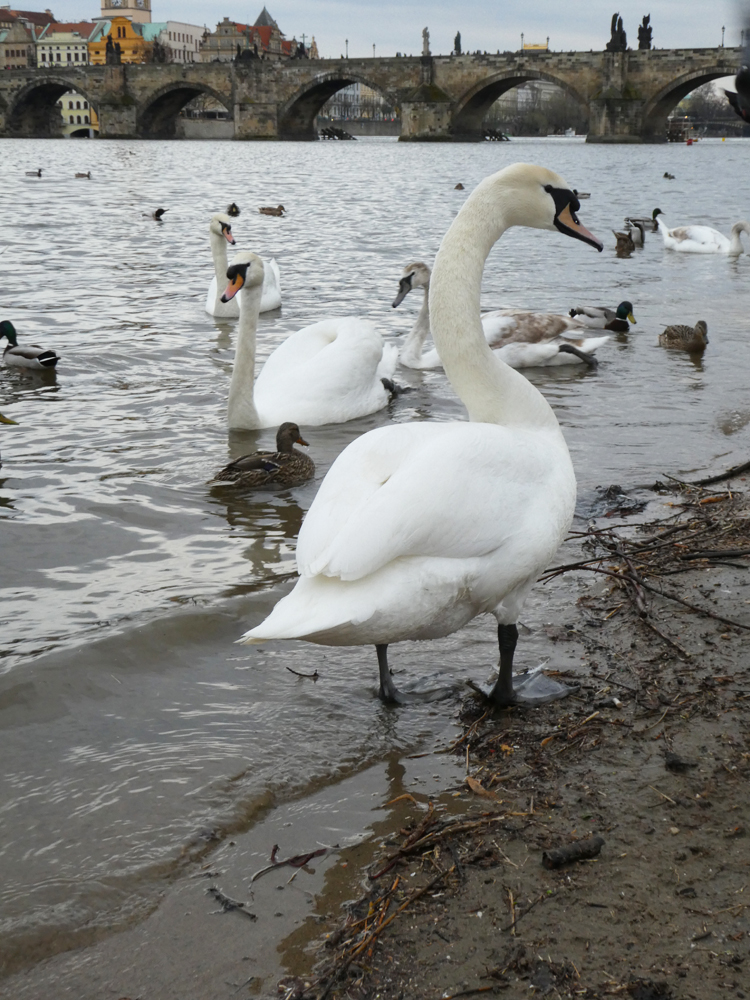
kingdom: Animalia
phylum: Chordata
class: Aves
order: Anseriformes
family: Anatidae
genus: Cygnus
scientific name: Cygnus cygnus
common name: Whooper swan
